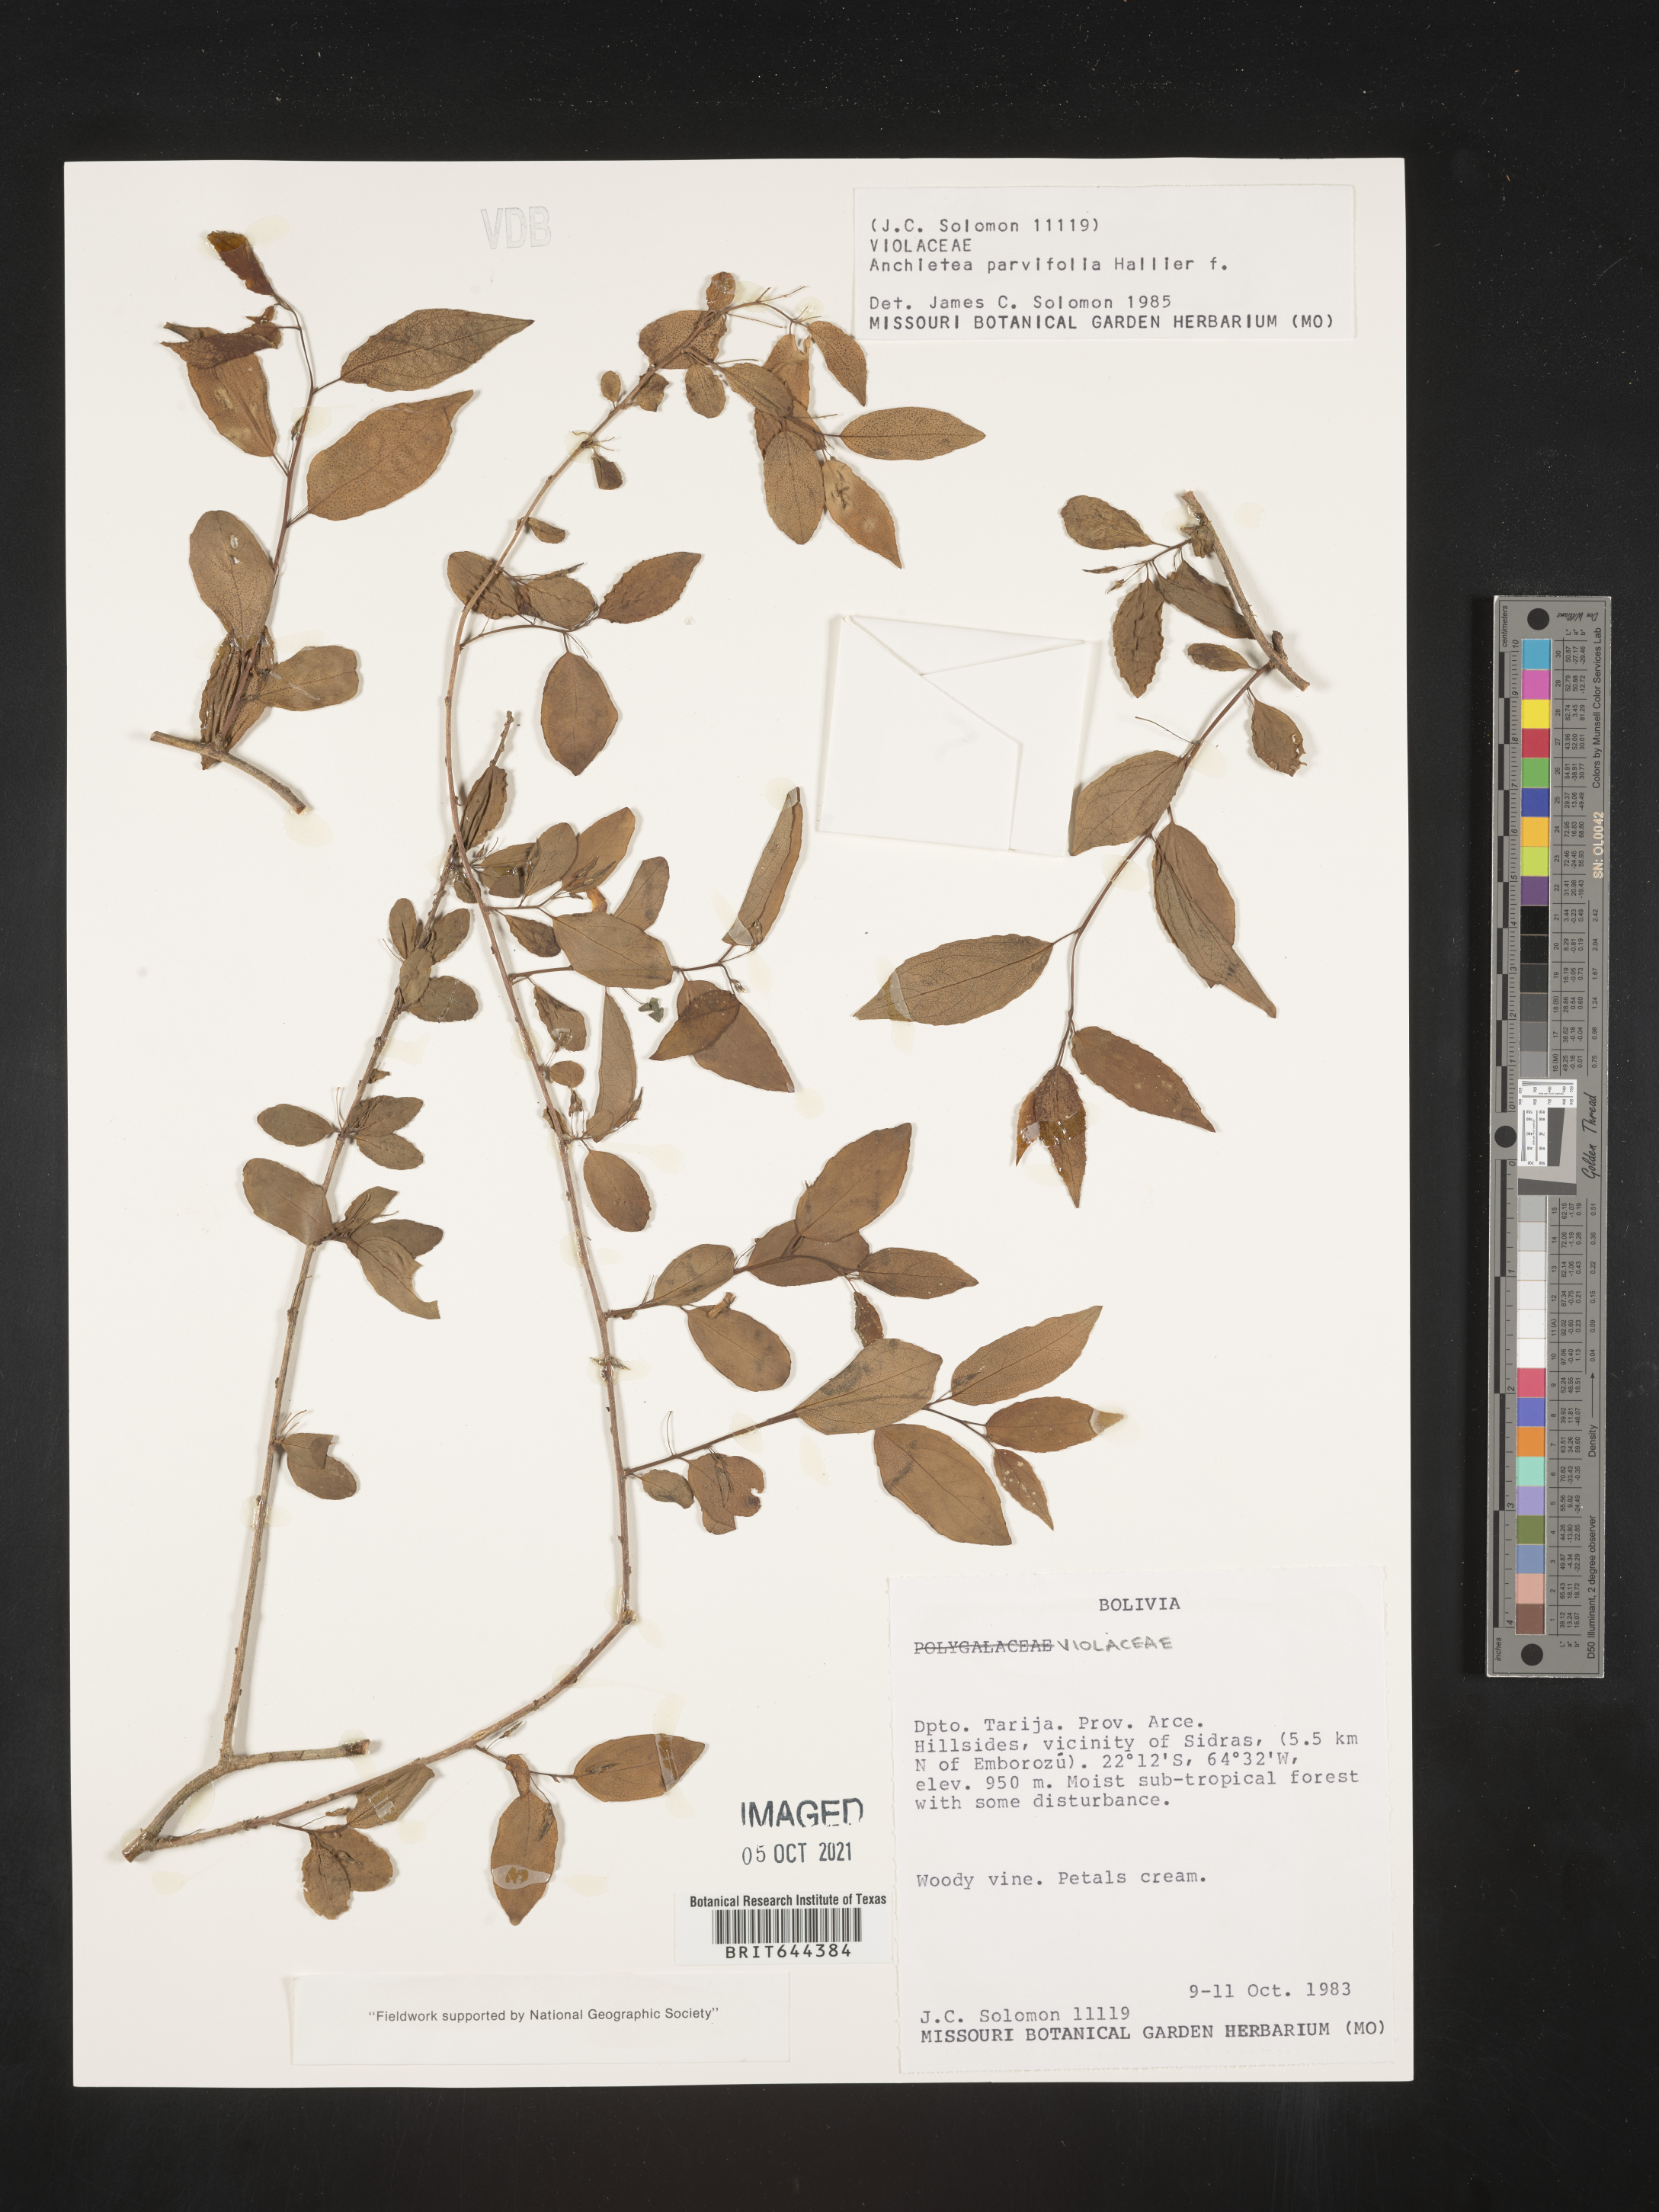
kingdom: Plantae
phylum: Tracheophyta
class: Magnoliopsida
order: Malpighiales
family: Violaceae
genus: Anchietea
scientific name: Anchietea
